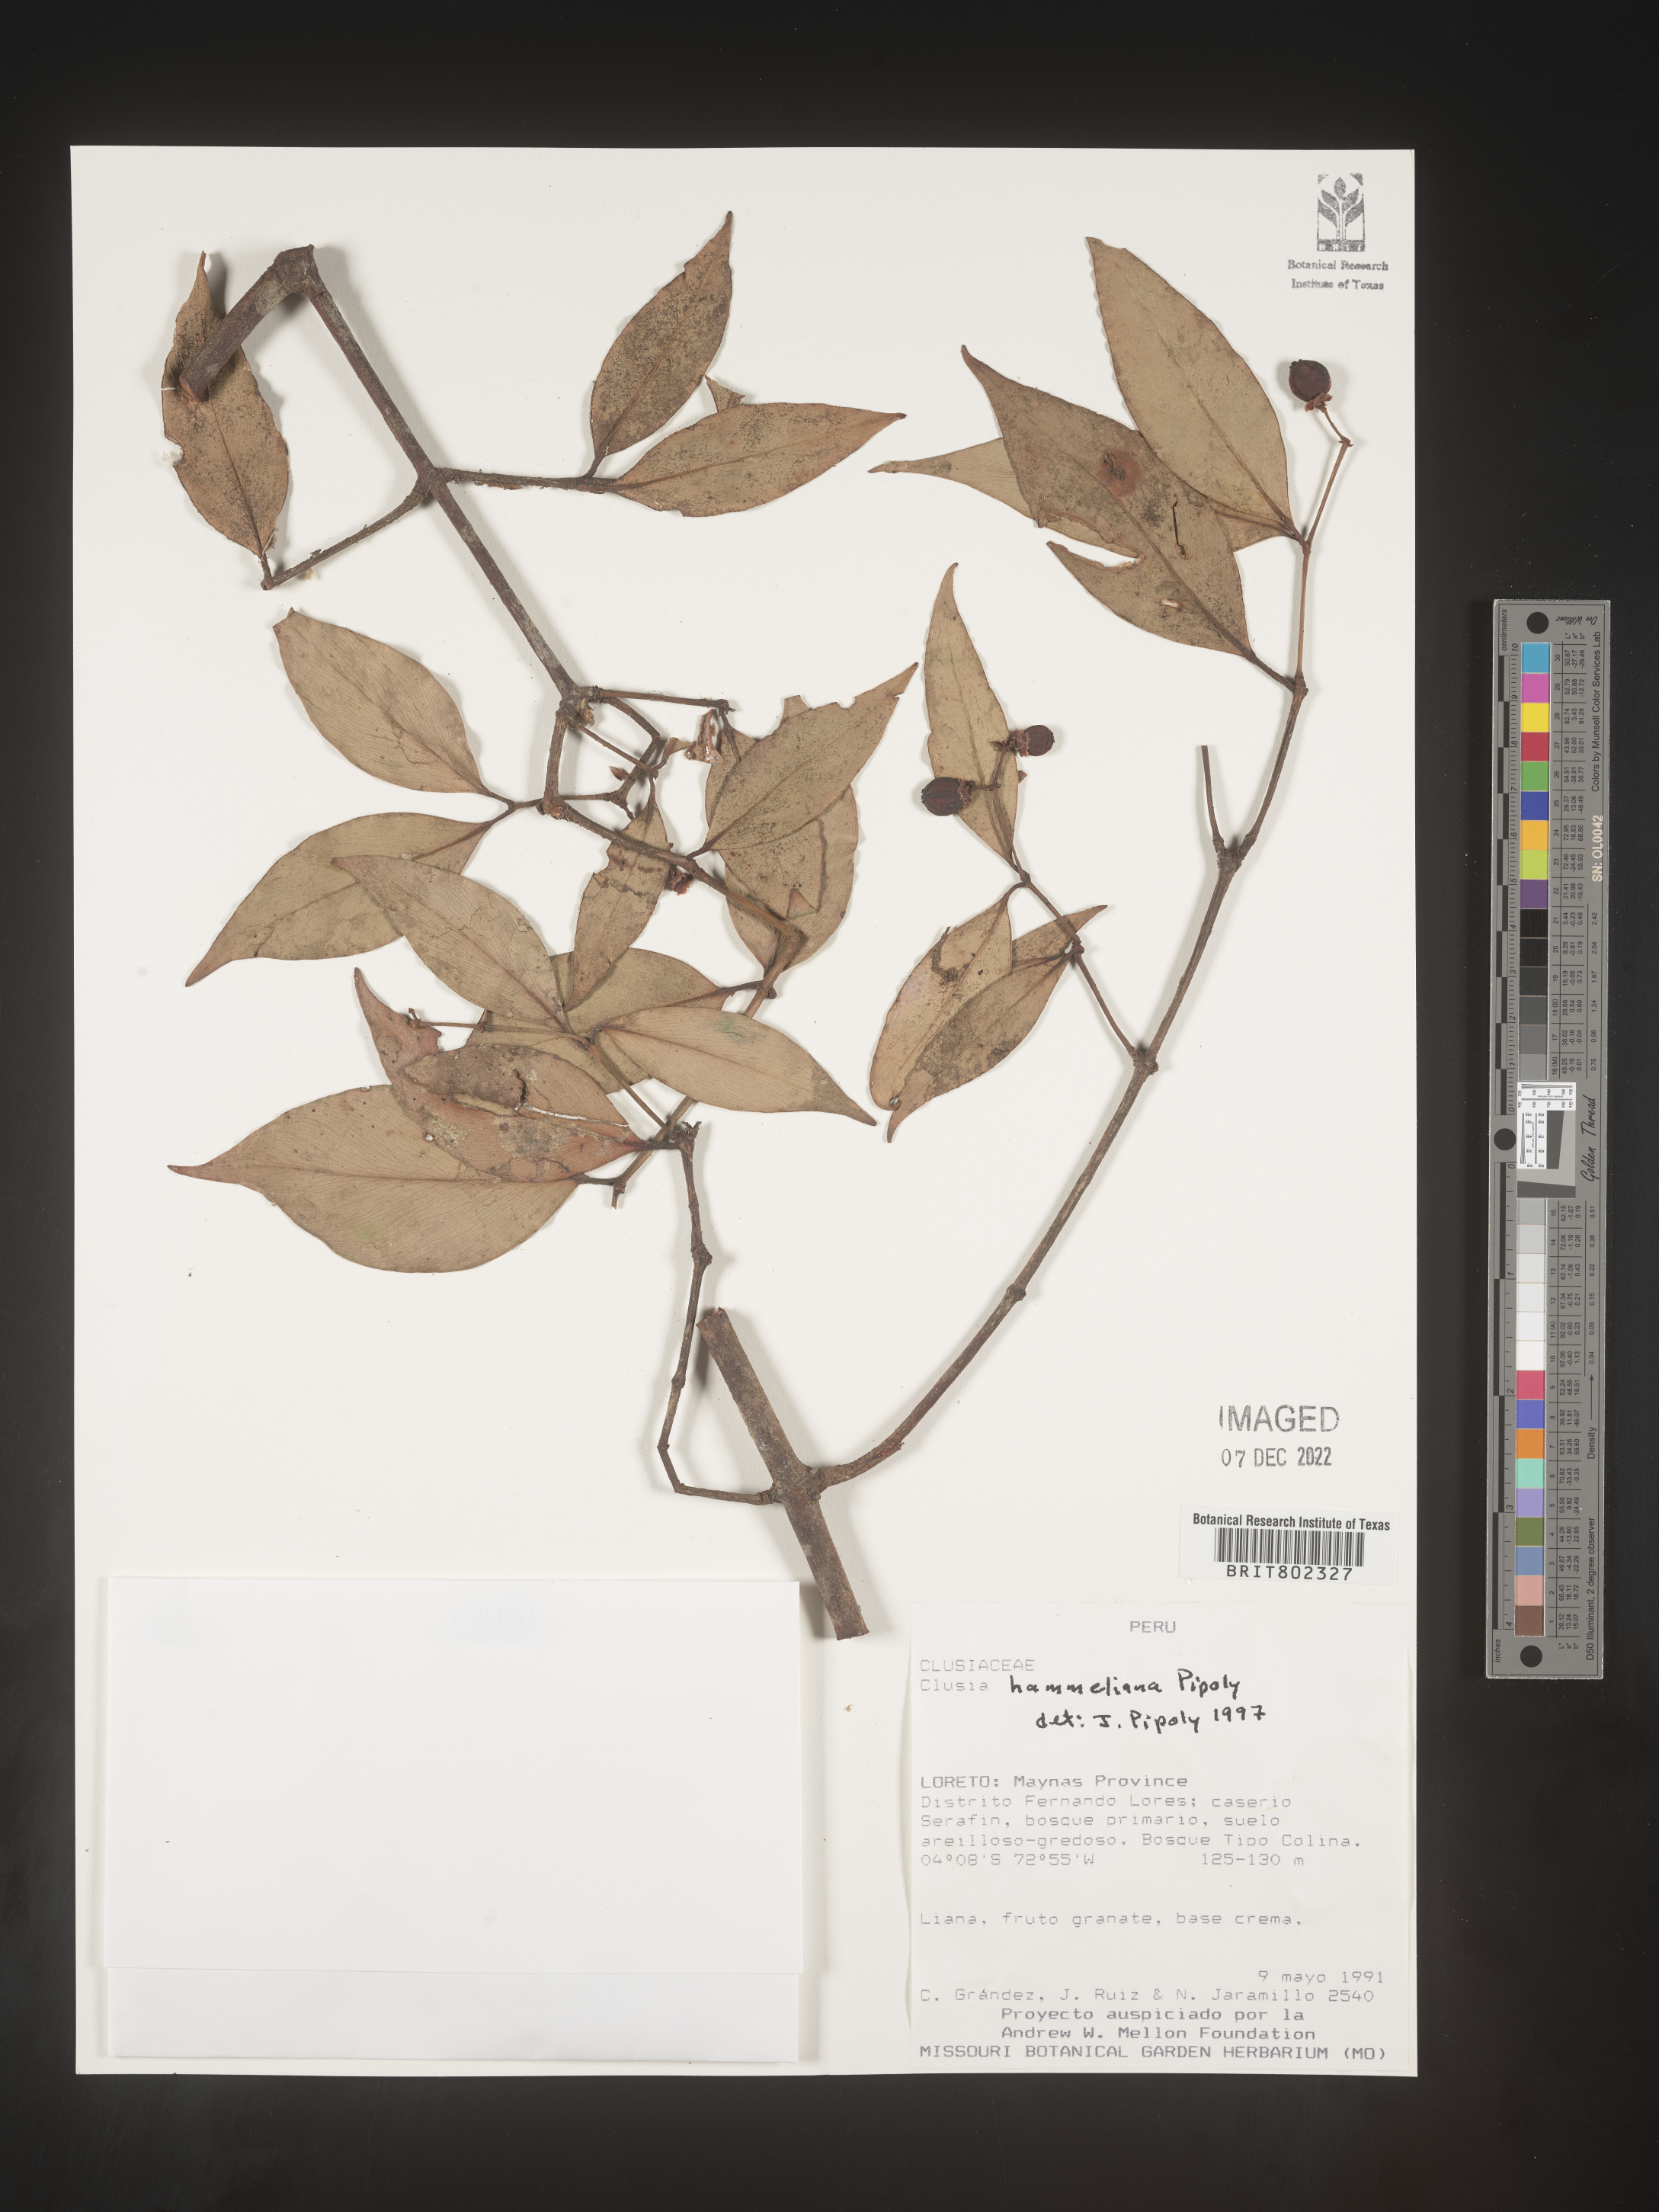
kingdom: Plantae
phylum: Tracheophyta
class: Magnoliopsida
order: Malpighiales
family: Clusiaceae
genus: Clusia
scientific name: Clusia hammeliana
